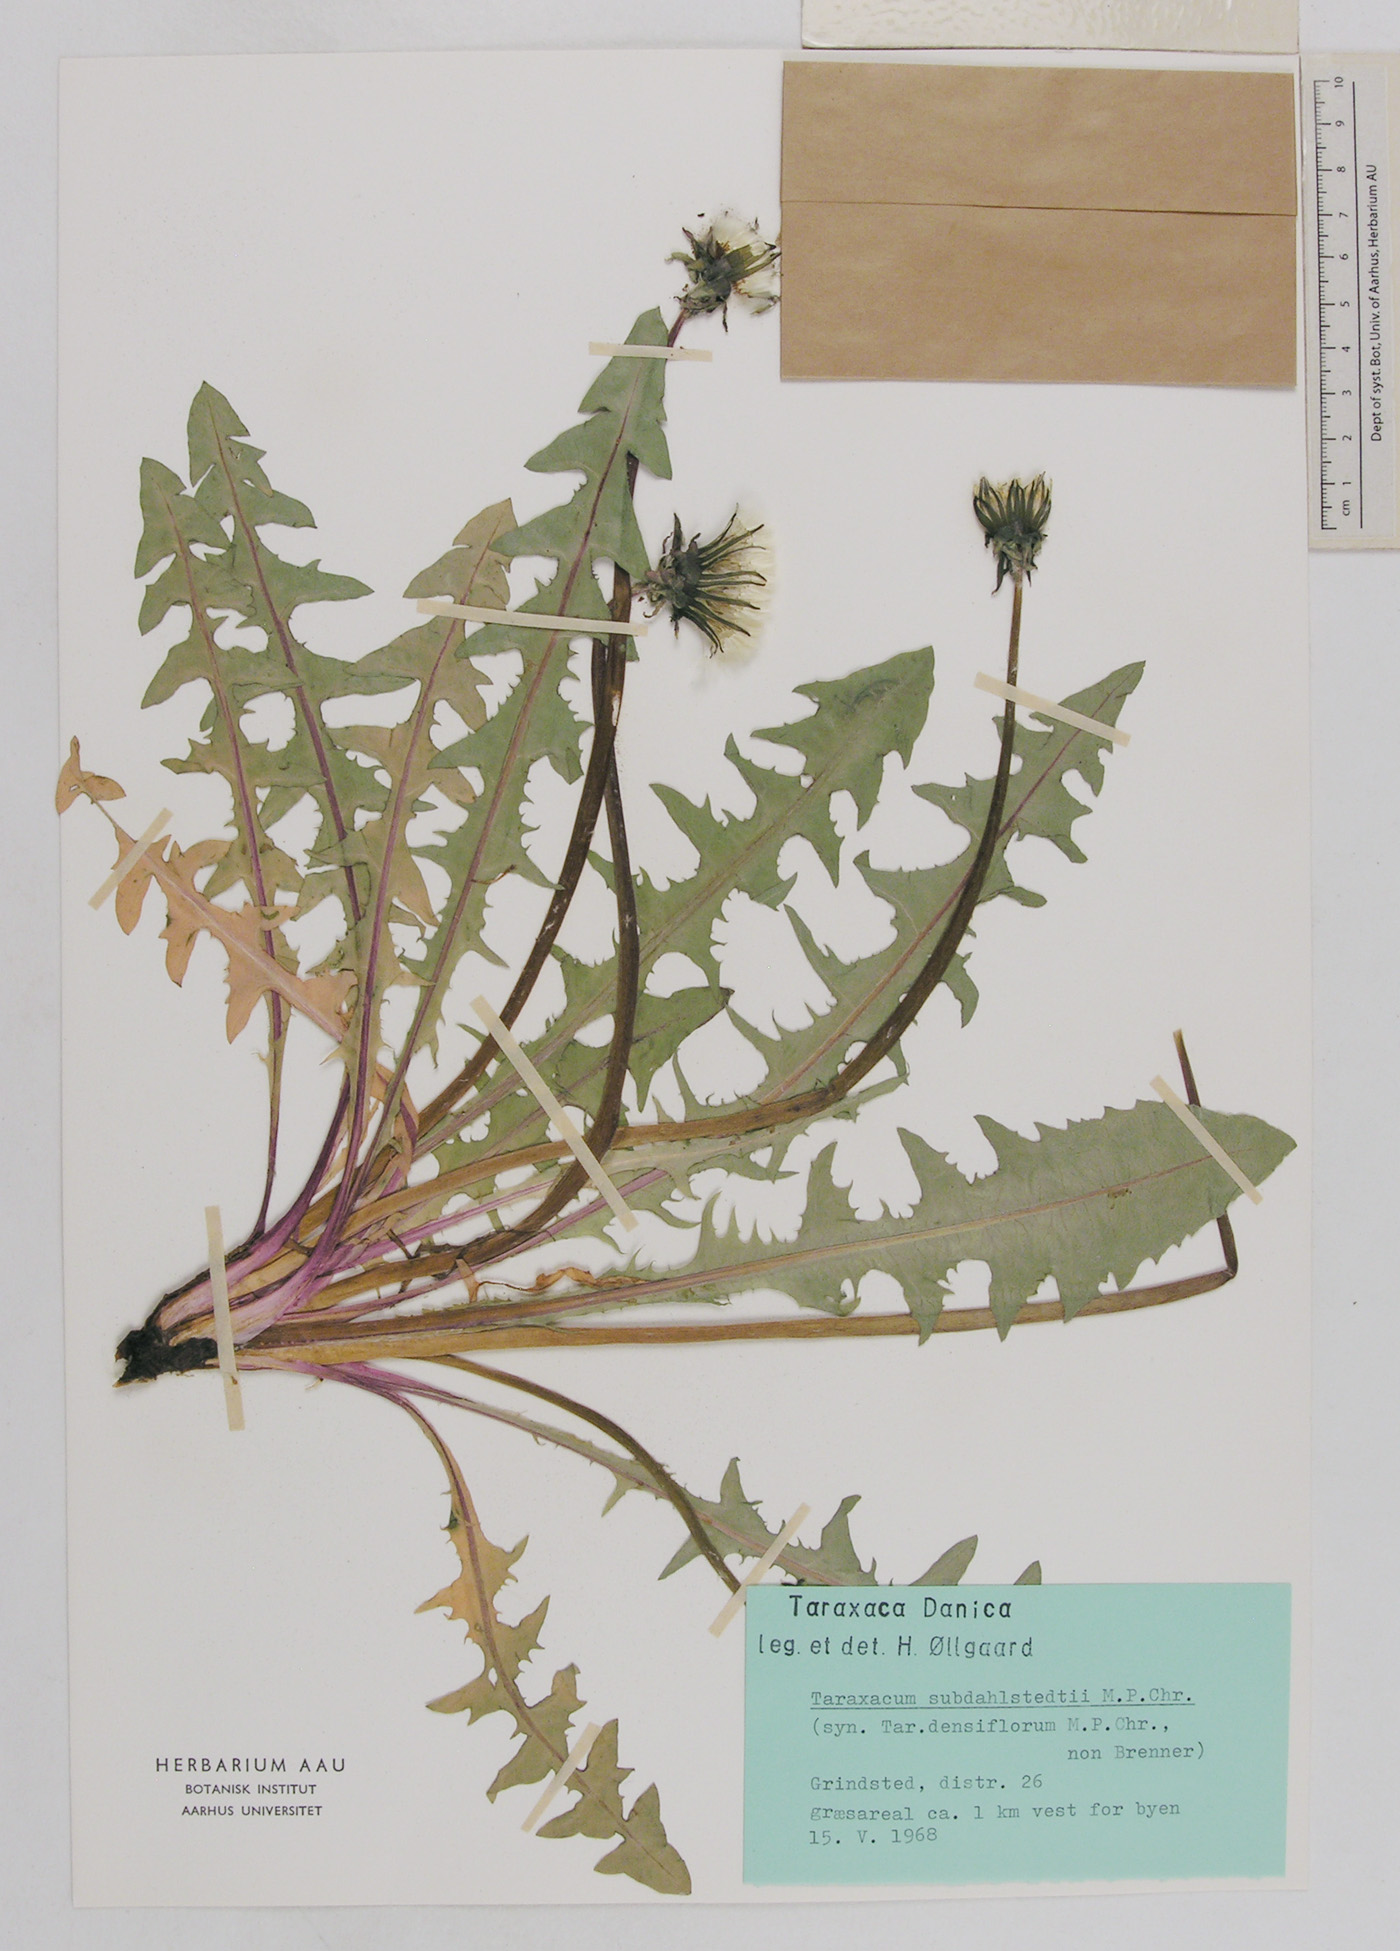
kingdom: Plantae
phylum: Tracheophyta
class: Magnoliopsida
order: Asterales
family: Asteraceae
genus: Taraxacum
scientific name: Taraxacum subdahlstedtii
